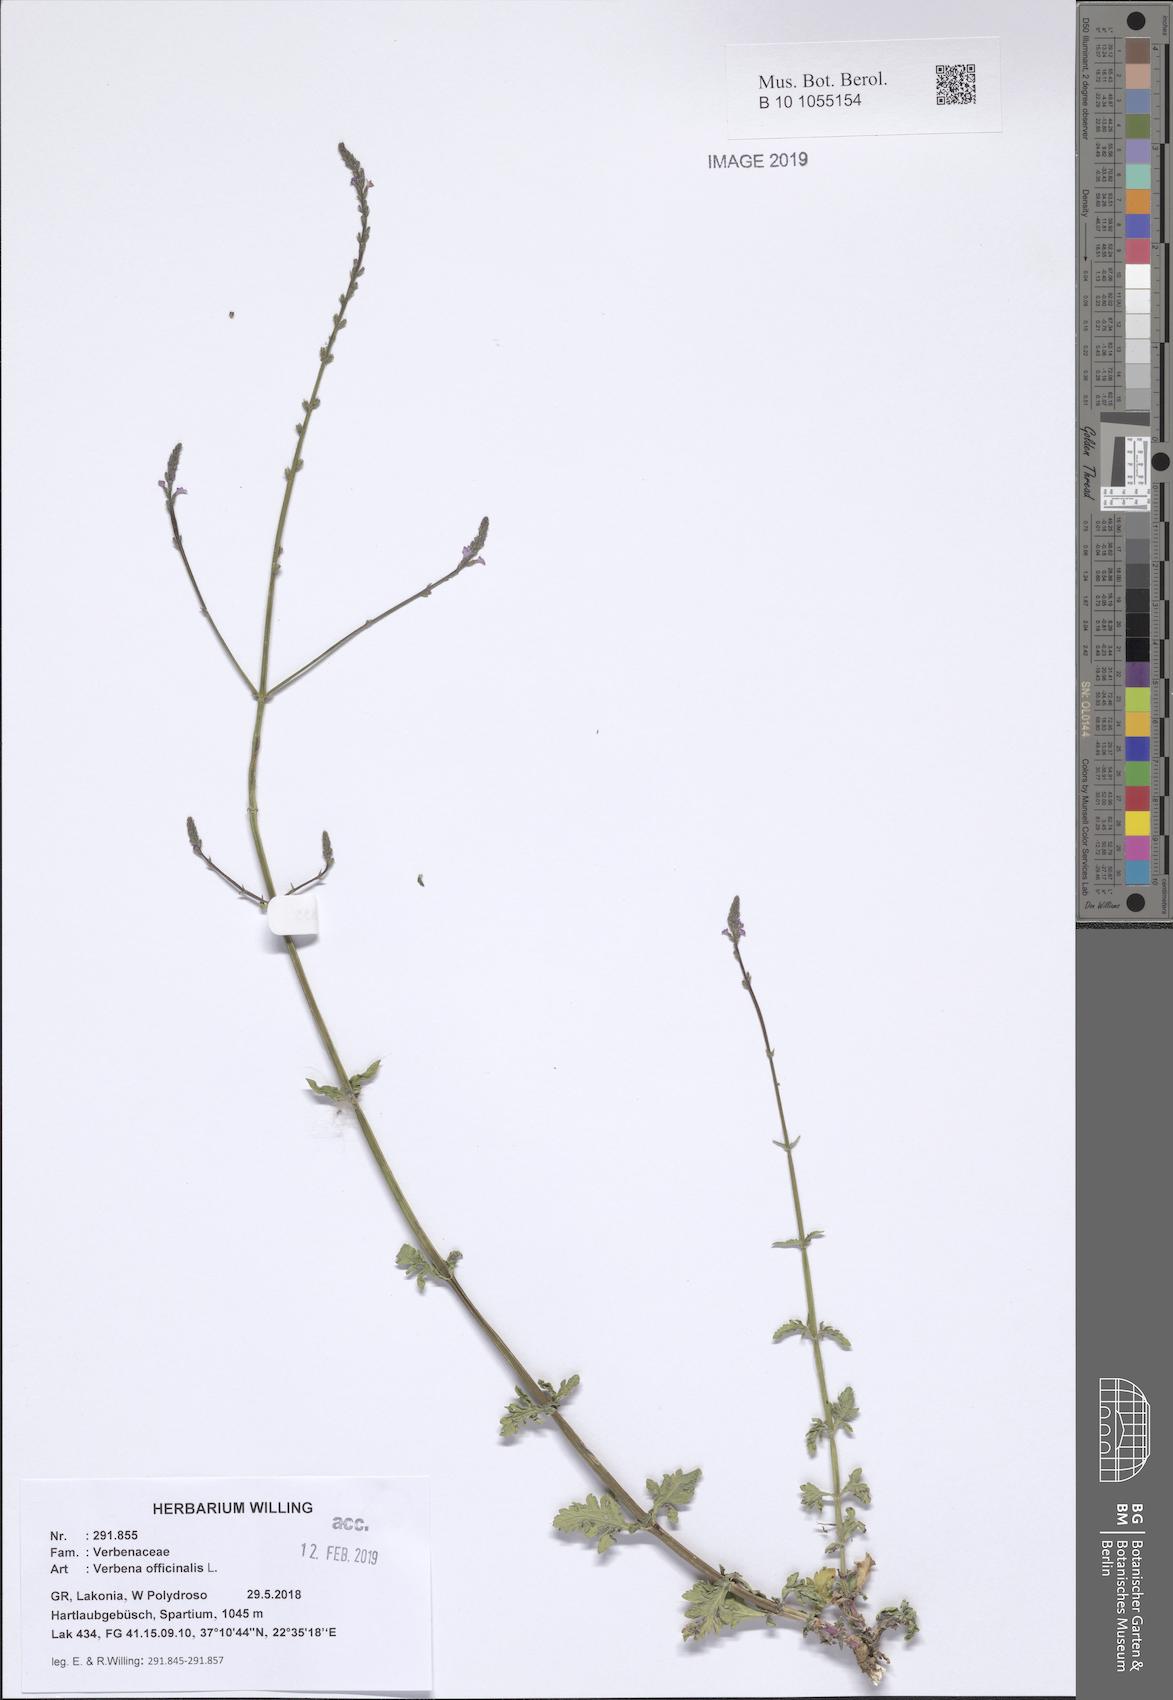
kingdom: Plantae
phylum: Tracheophyta
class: Magnoliopsida
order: Lamiales
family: Verbenaceae
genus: Verbena
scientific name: Verbena officinalis
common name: Vervain
